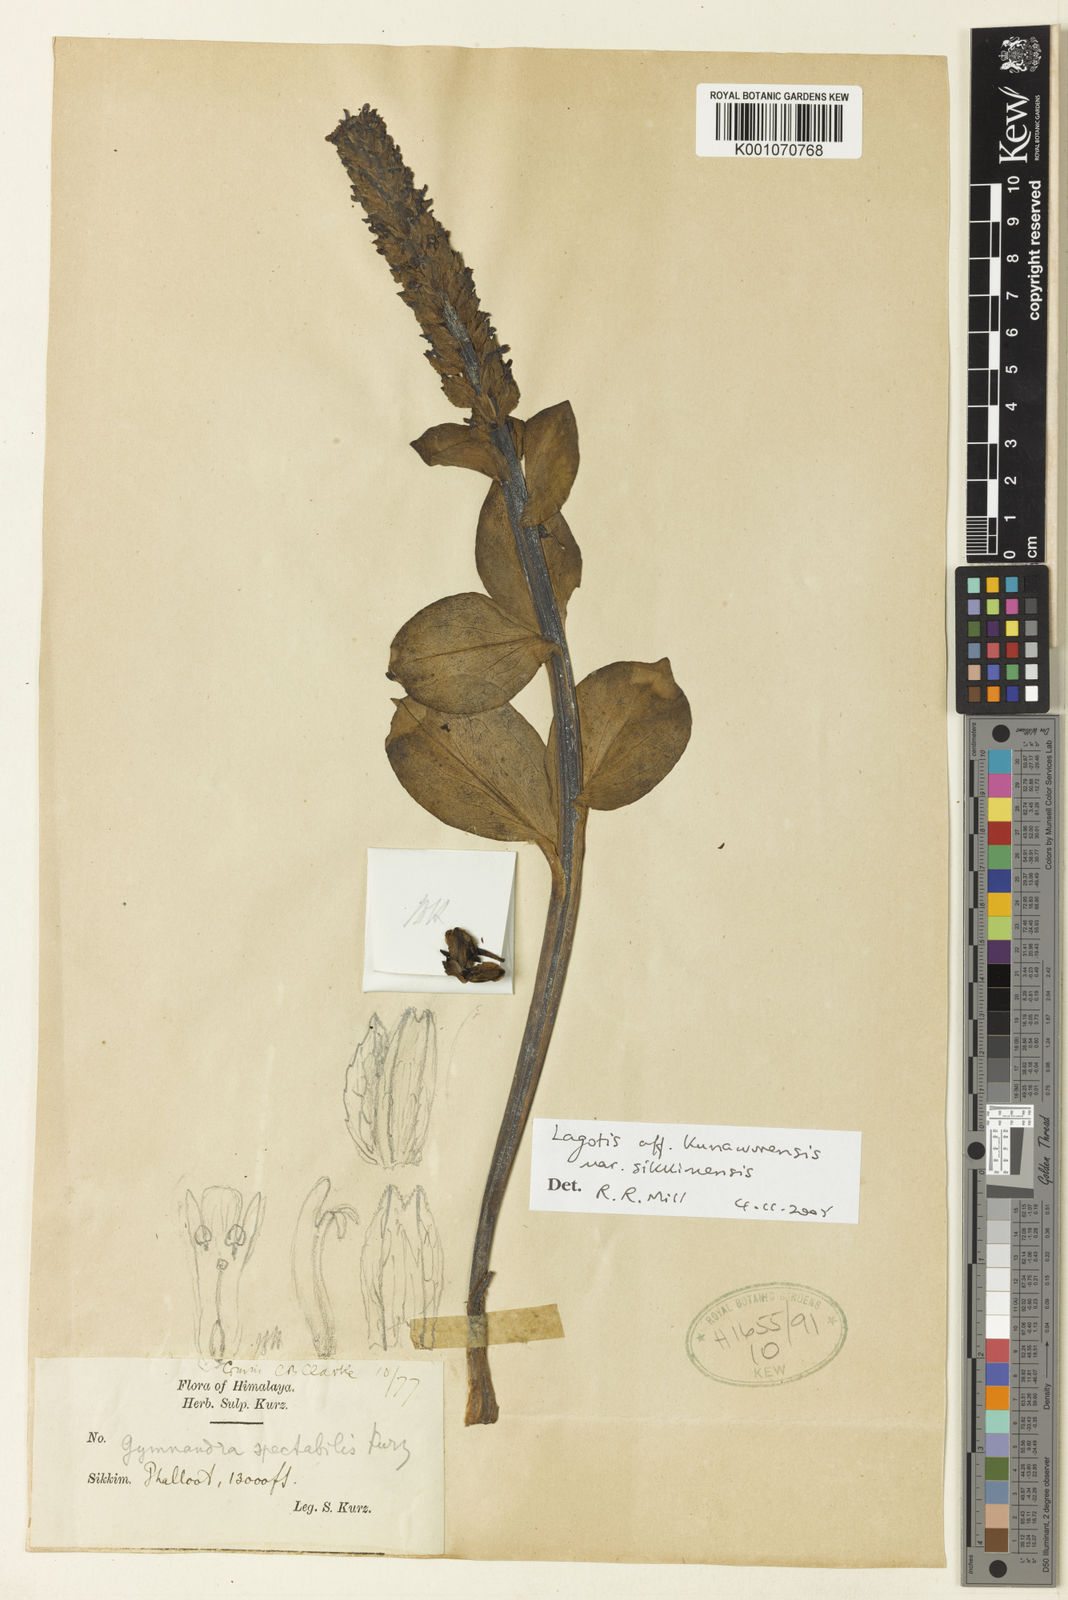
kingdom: Plantae
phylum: Tracheophyta
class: Magnoliopsida
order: Lamiales
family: Plantaginaceae
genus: Lagotis
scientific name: Lagotis kunawurensis
